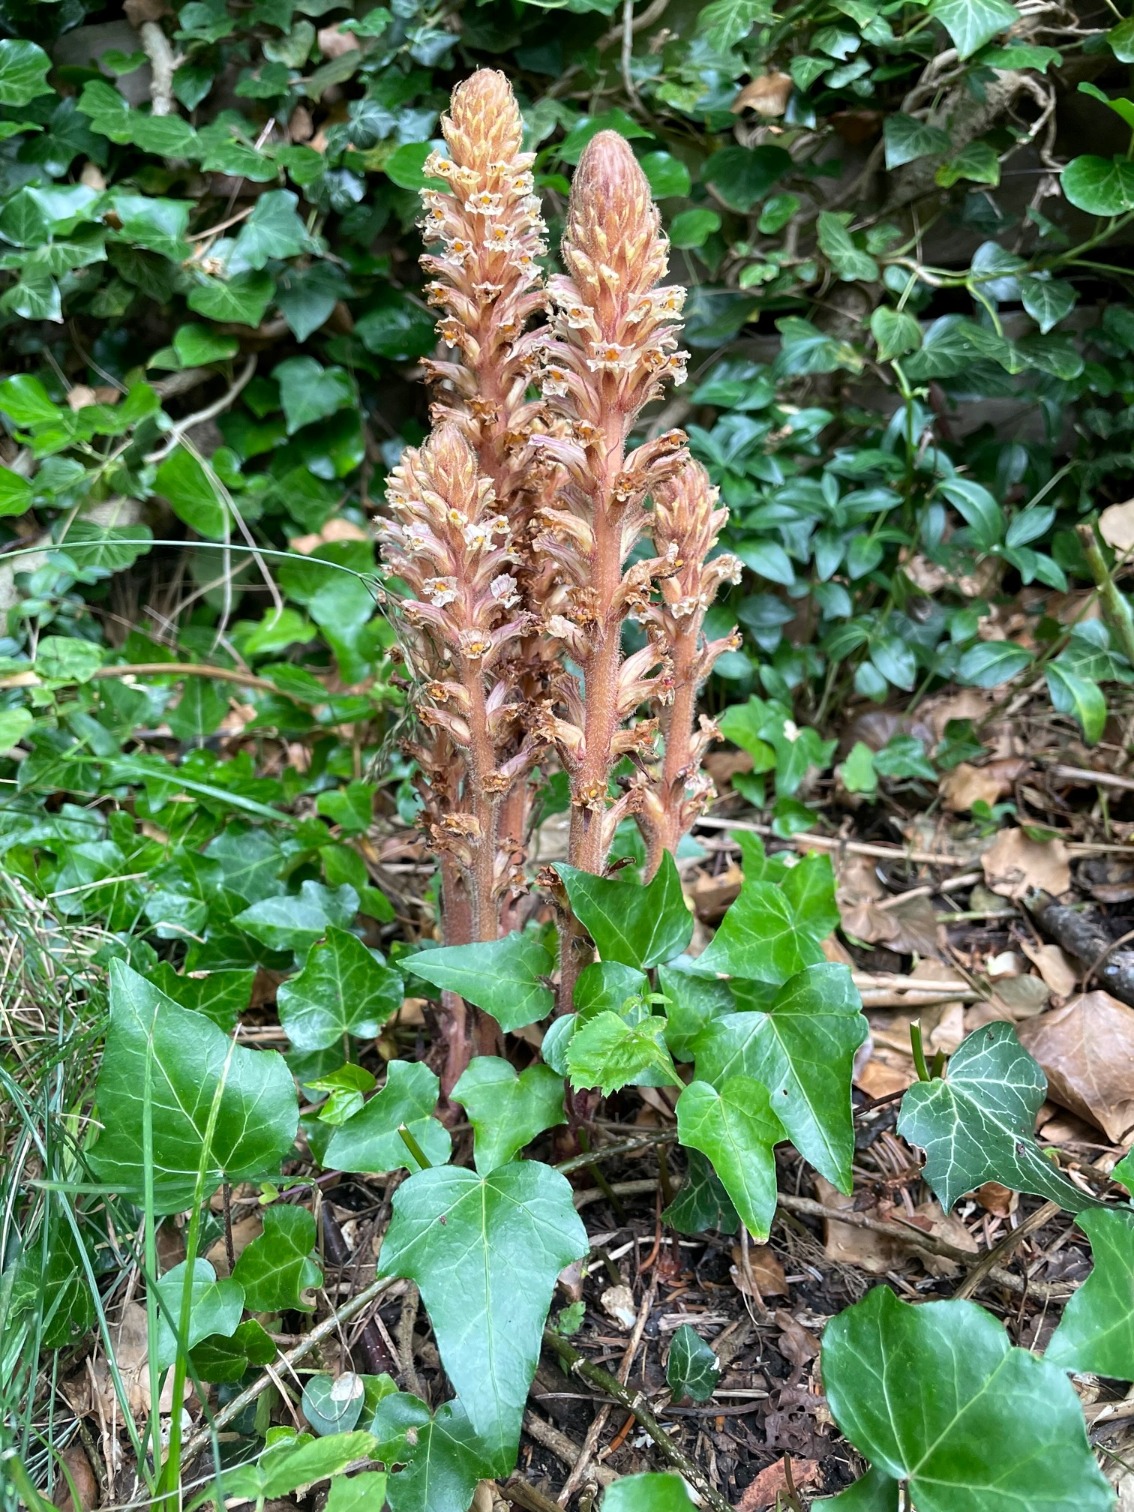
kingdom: Plantae
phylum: Tracheophyta
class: Magnoliopsida
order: Lamiales
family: Orobanchaceae
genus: Orobanche
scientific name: Orobanche hederae
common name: Vedbend-gyvelkvæler
